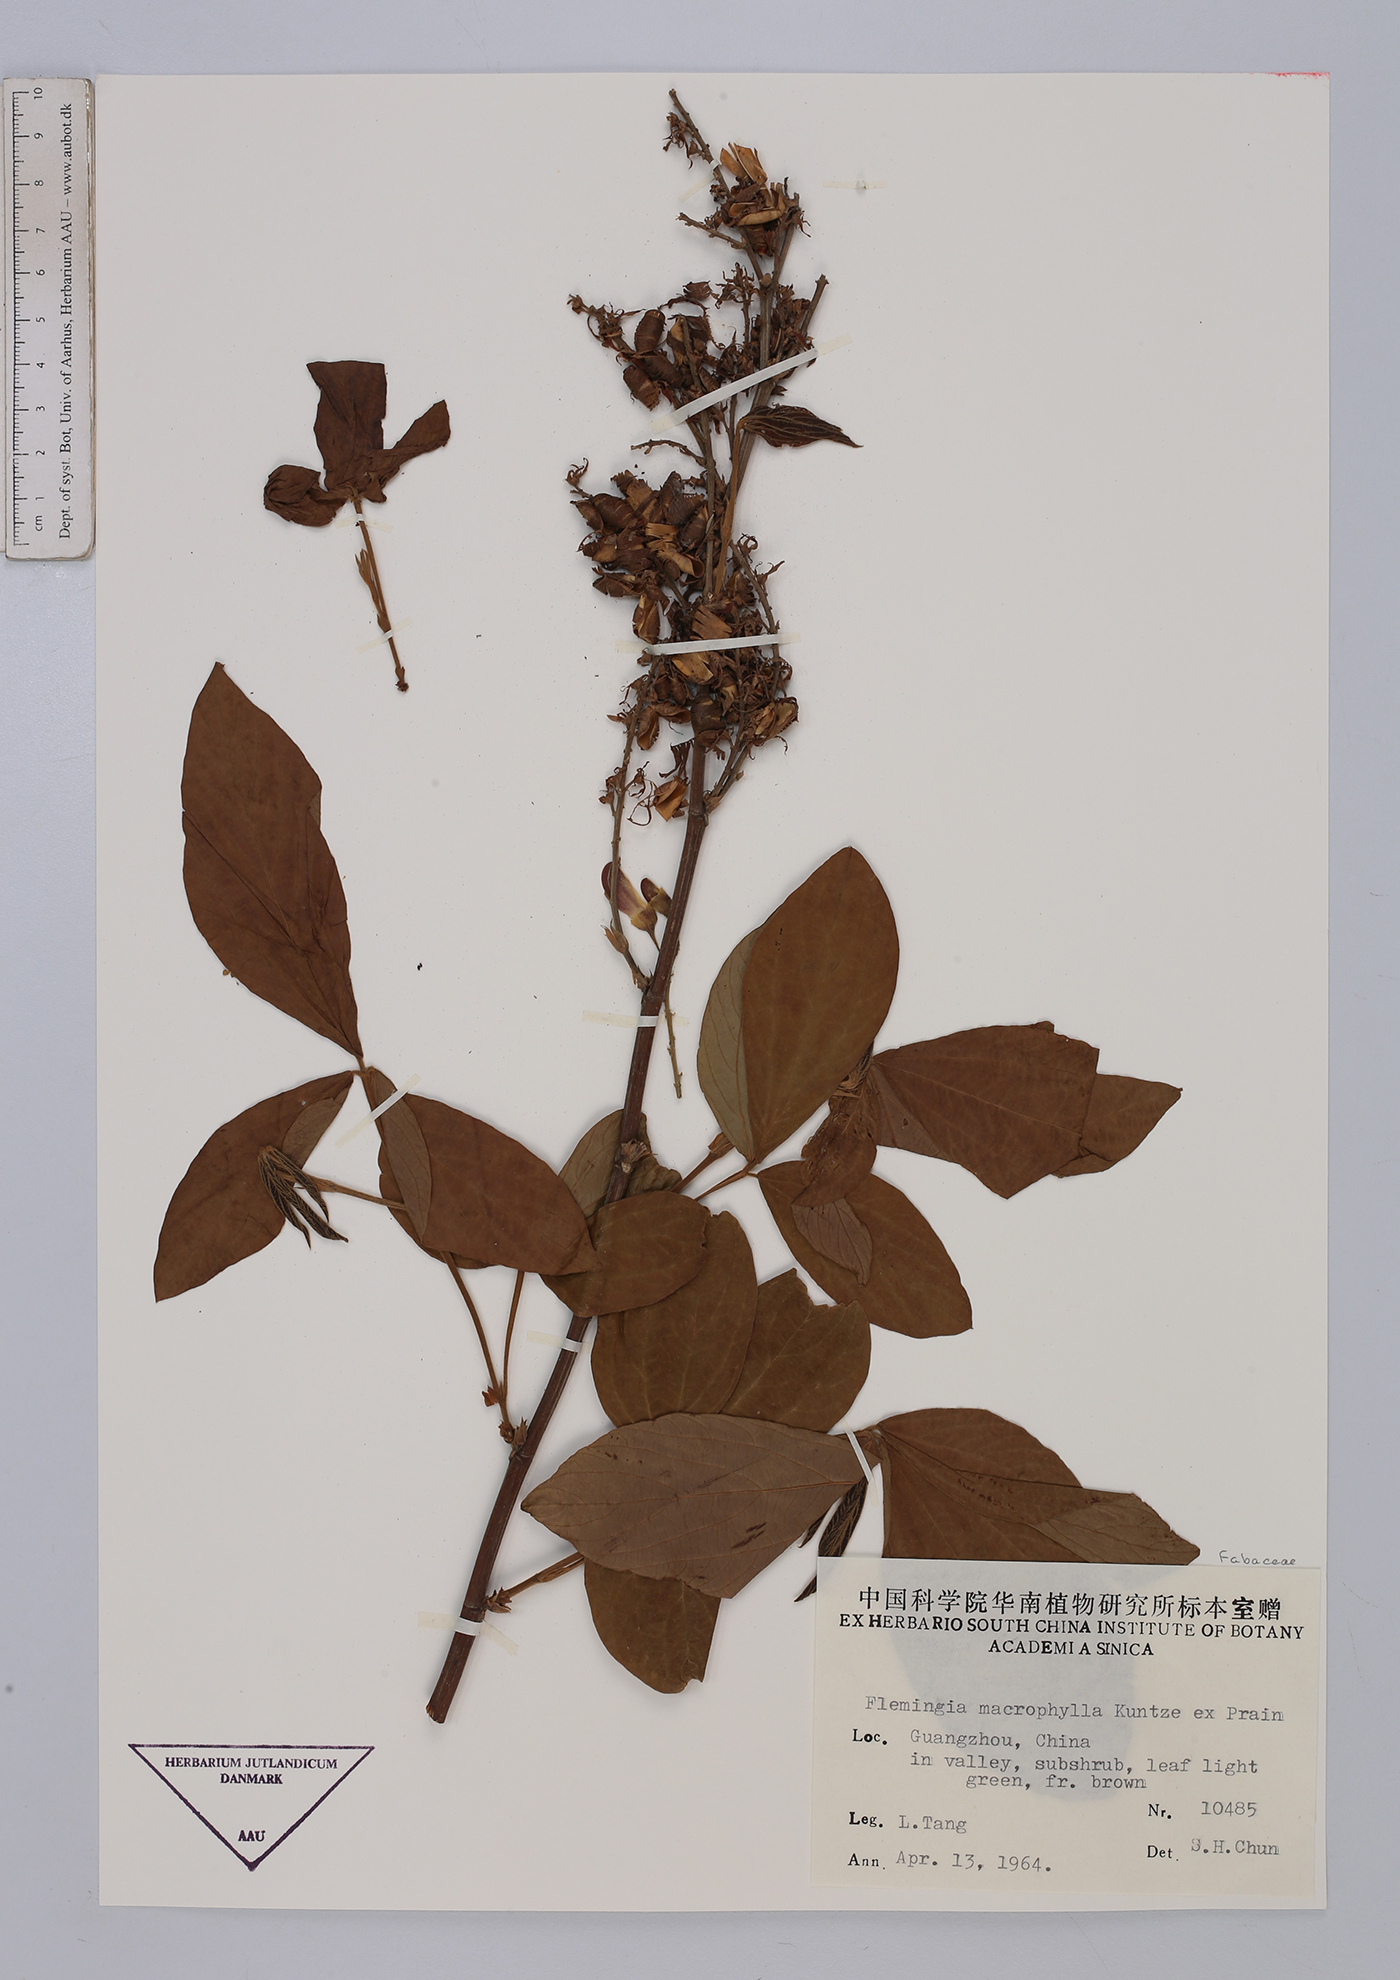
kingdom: Plantae
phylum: Tracheophyta
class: Magnoliopsida
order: Fabales
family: Fabaceae
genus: Flemingia
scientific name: Flemingia macrophylla
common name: Flemingia
